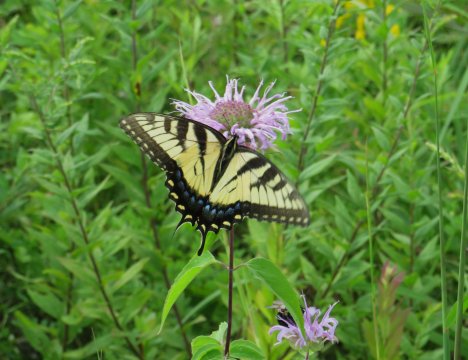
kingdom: Animalia
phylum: Arthropoda
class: Insecta
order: Lepidoptera
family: Papilionidae
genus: Pterourus
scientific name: Pterourus glaucus
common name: Eastern Tiger Swallowtail
